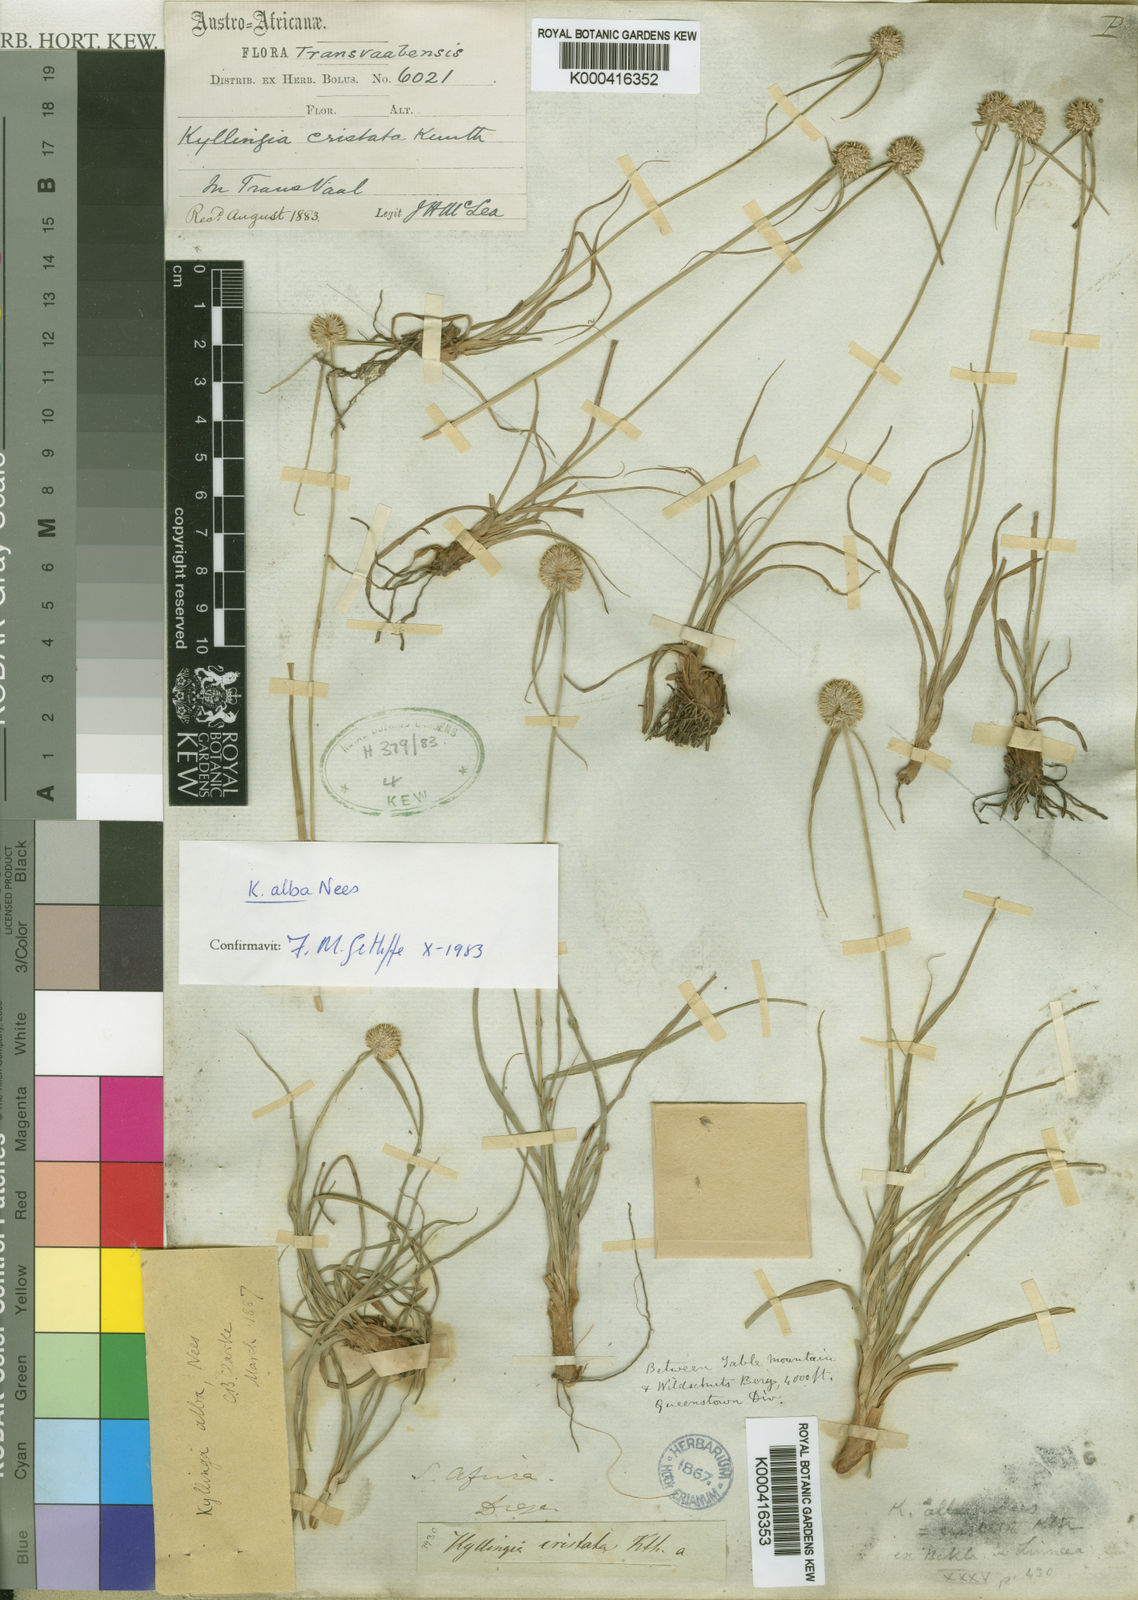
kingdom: Plantae
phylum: Tracheophyta
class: Liliopsida
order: Poales
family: Cyperaceae
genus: Cyperus
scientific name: Cyperus alatus
